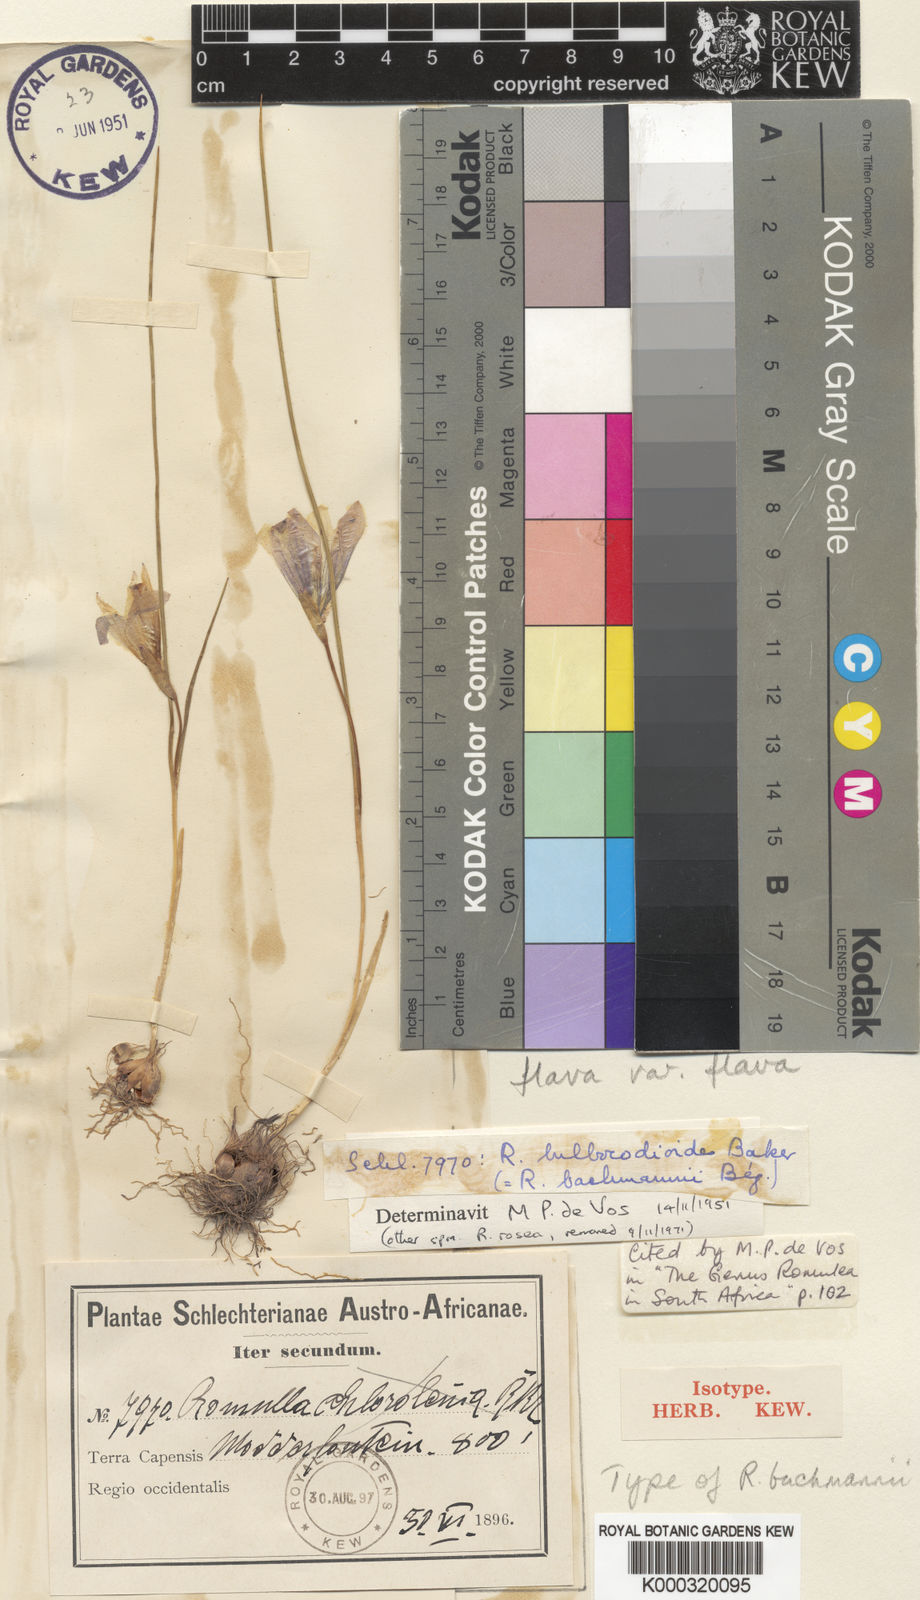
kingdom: Plantae
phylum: Tracheophyta
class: Liliopsida
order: Asparagales
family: Iridaceae
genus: Romulea
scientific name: Romulea flava
